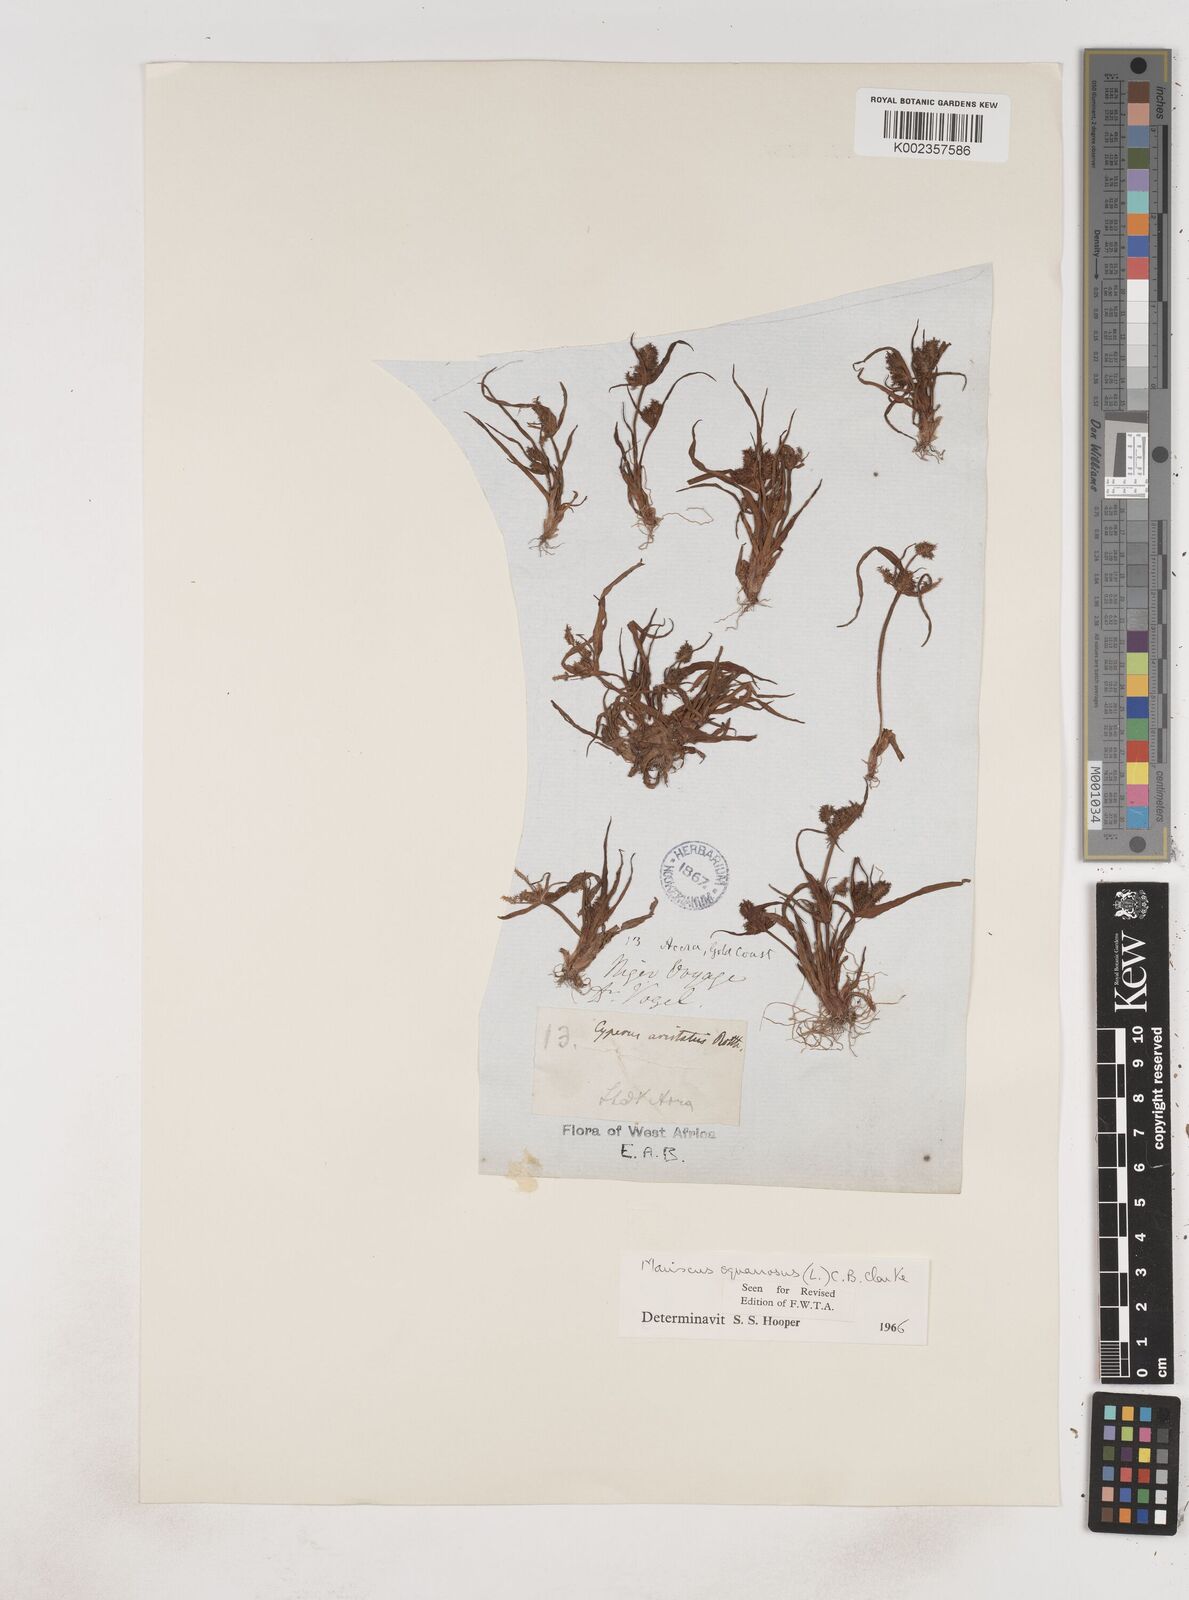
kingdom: Plantae
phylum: Tracheophyta
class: Liliopsida
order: Poales
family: Cyperaceae
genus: Cyperus
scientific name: Cyperus squarrosus
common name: Awned cyperus
